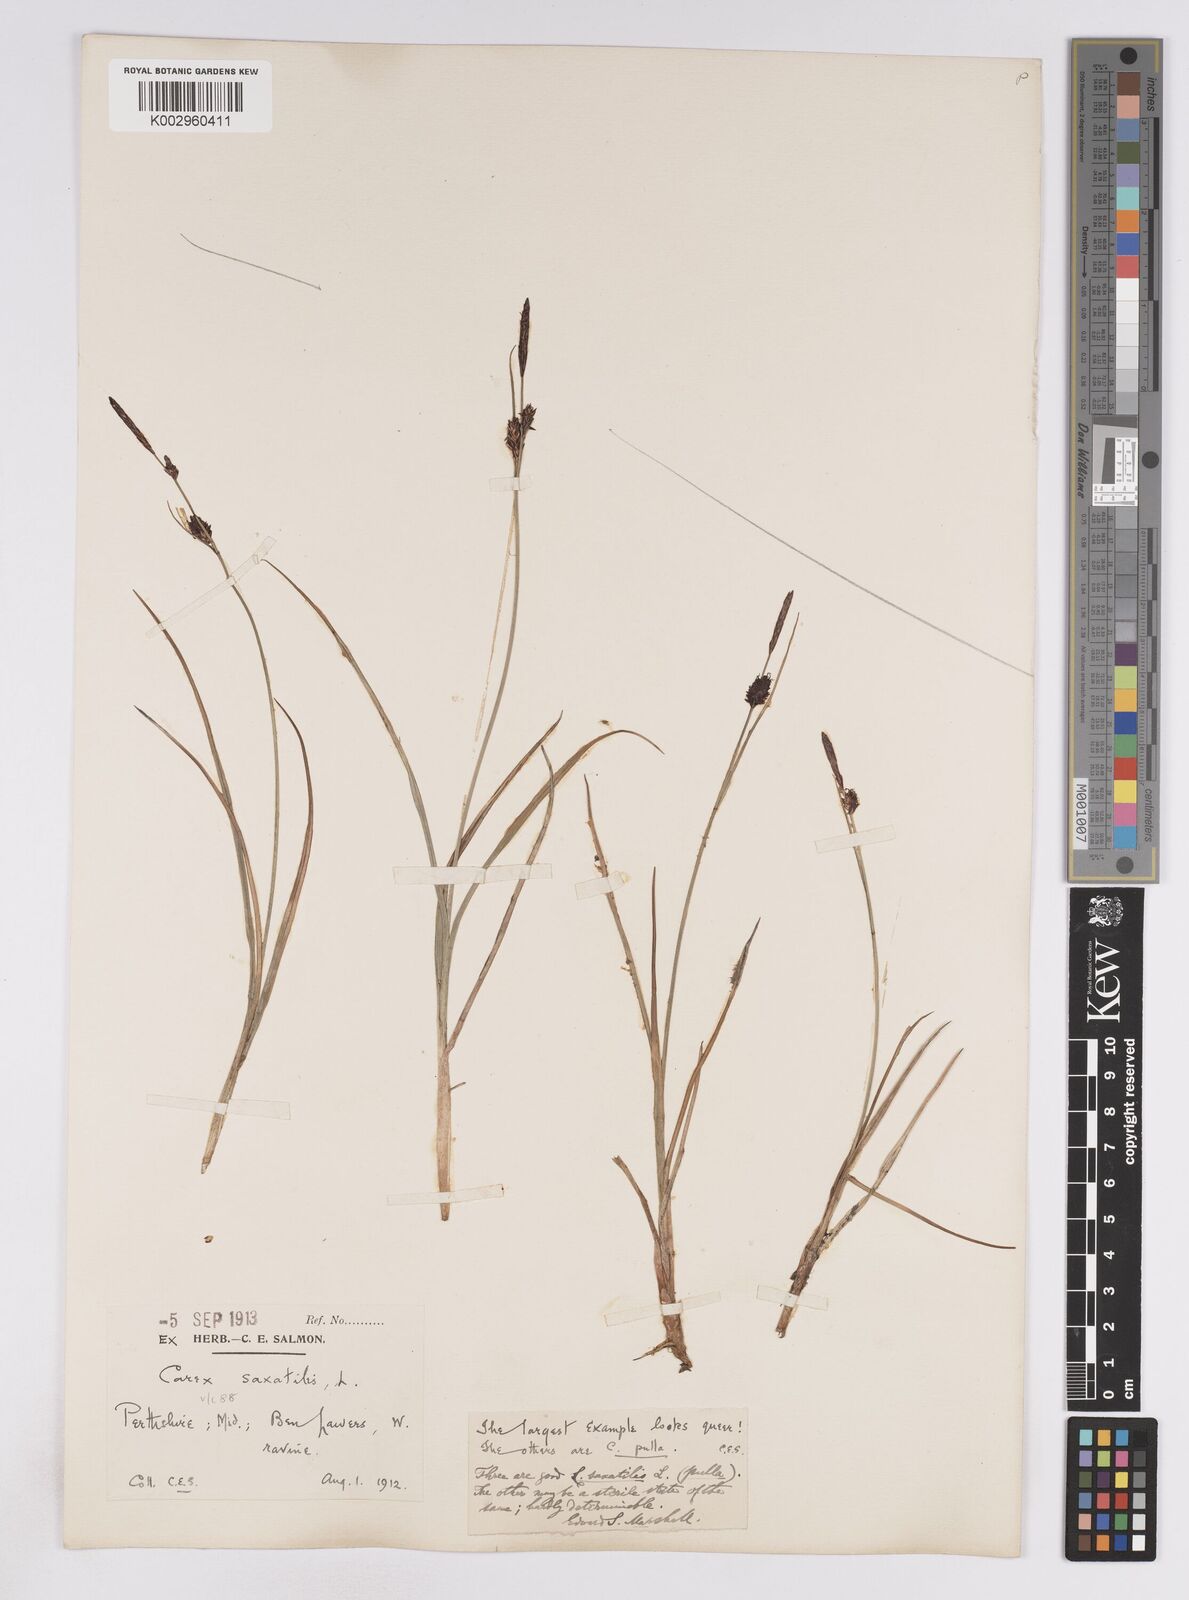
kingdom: Plantae
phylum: Tracheophyta
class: Liliopsida
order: Poales
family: Cyperaceae
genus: Carex
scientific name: Carex saxatilis
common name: Russet sedge
